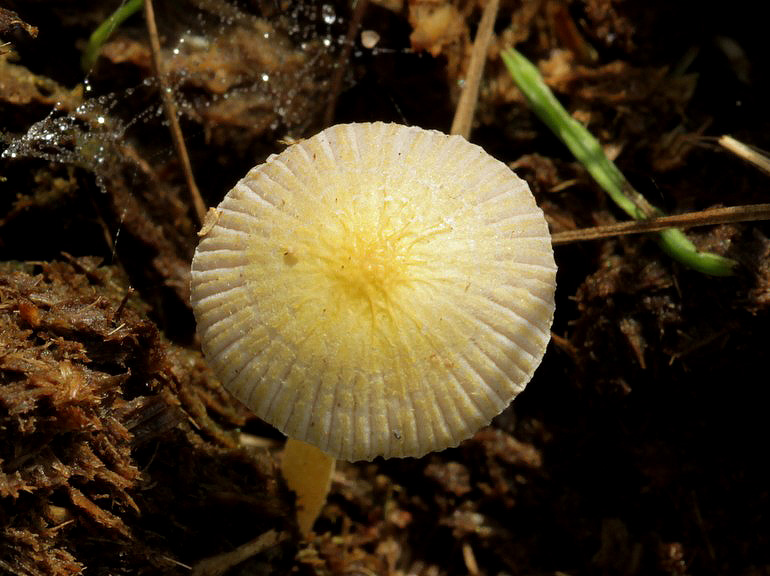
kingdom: Fungi
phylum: Basidiomycota
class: Agaricomycetes
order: Agaricales
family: Bolbitiaceae
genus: Bolbitius
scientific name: Bolbitius titubans
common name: almindelig gulhat
